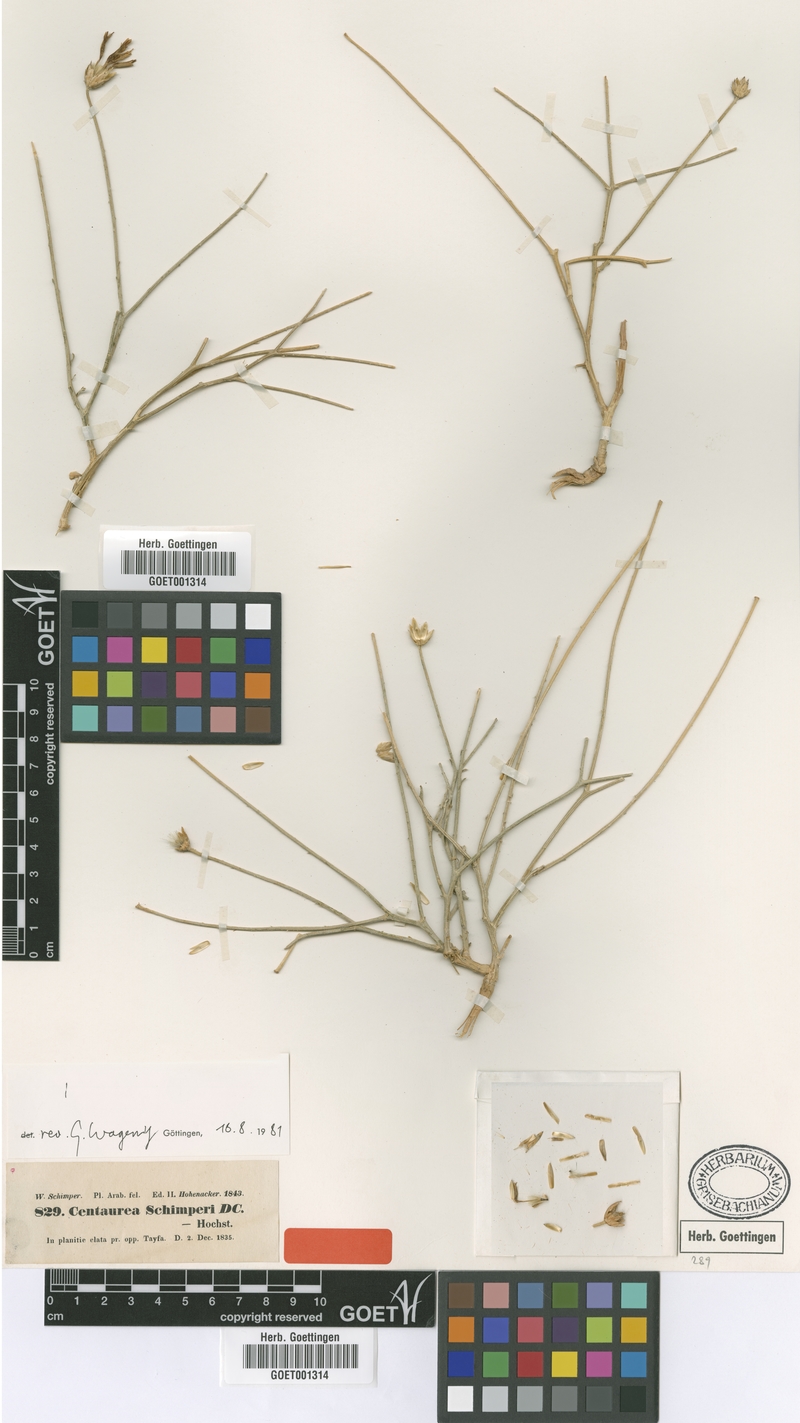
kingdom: Plantae
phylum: Tracheophyta
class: Magnoliopsida
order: Asterales
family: Asteraceae
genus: Centaurea
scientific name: Centaurea schimperi
